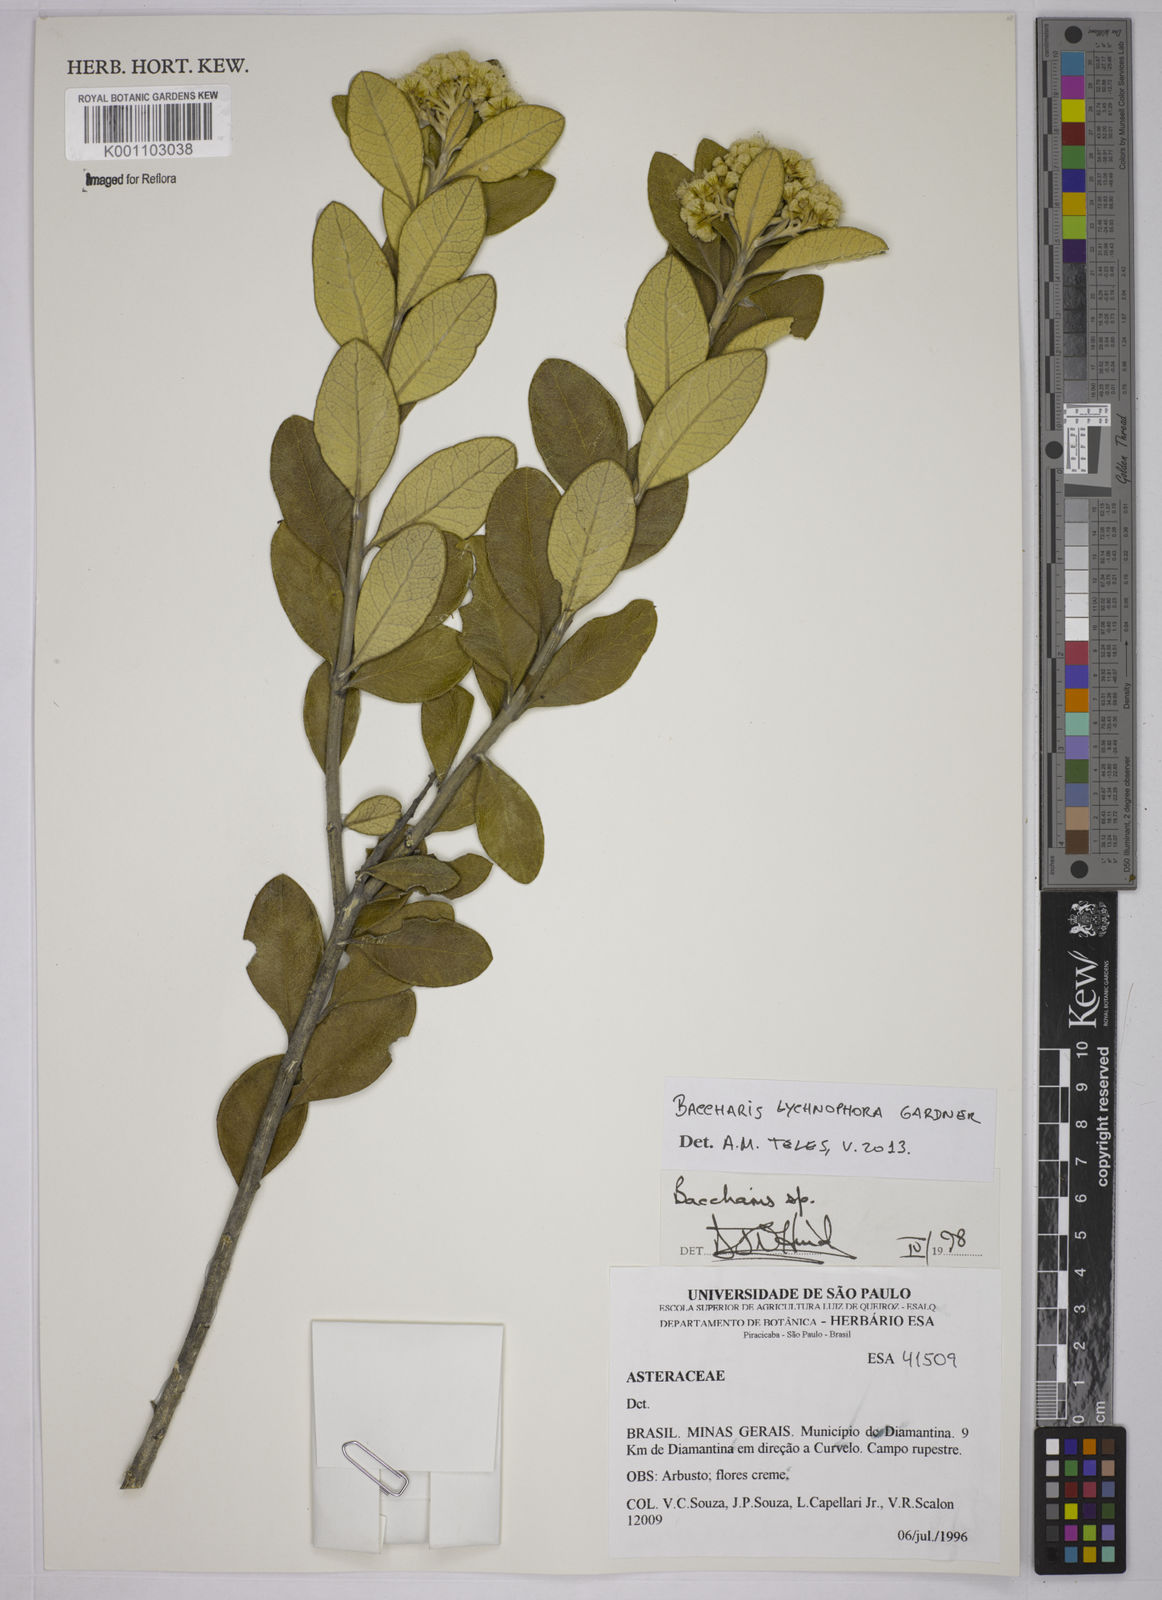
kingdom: Plantae
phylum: Tracheophyta
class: Magnoliopsida
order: Asterales
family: Asteraceae
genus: Baccharis
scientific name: Baccharis lychnophora
